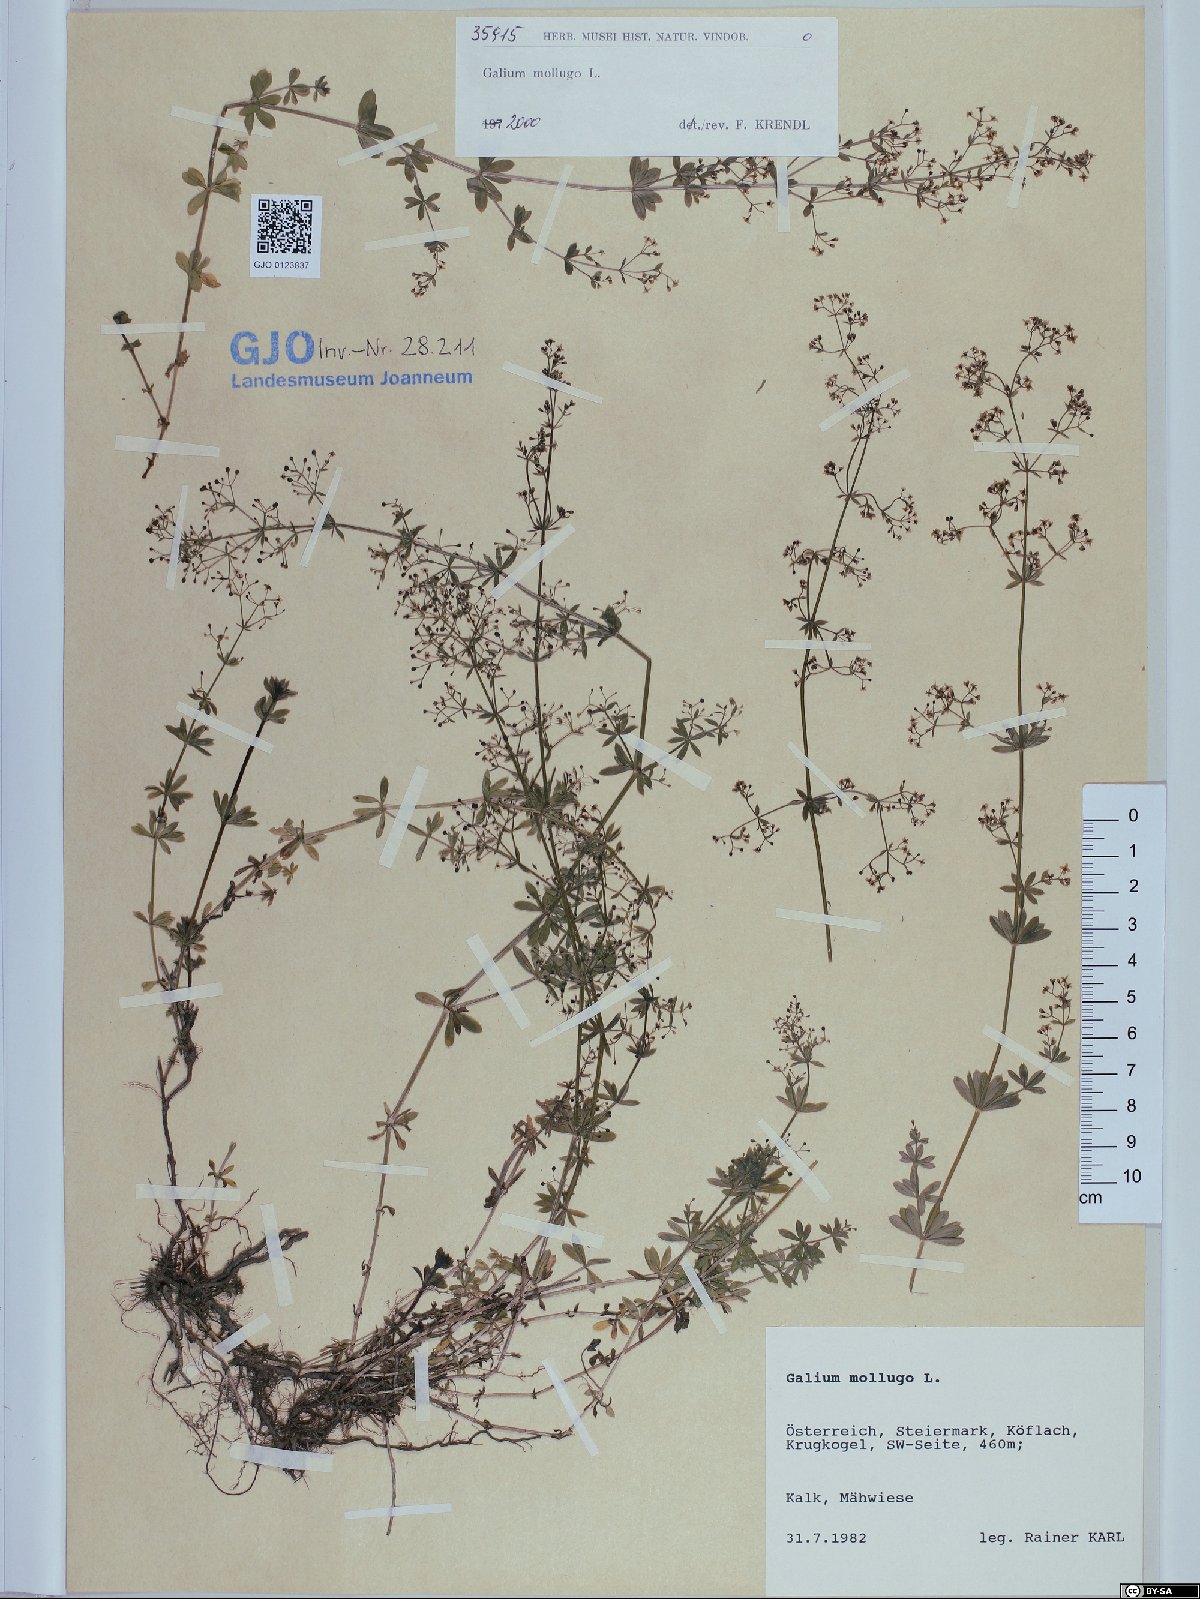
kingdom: Plantae
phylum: Tracheophyta
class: Magnoliopsida
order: Gentianales
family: Rubiaceae
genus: Galium
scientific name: Galium mollugo
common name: Hedge bedstraw
